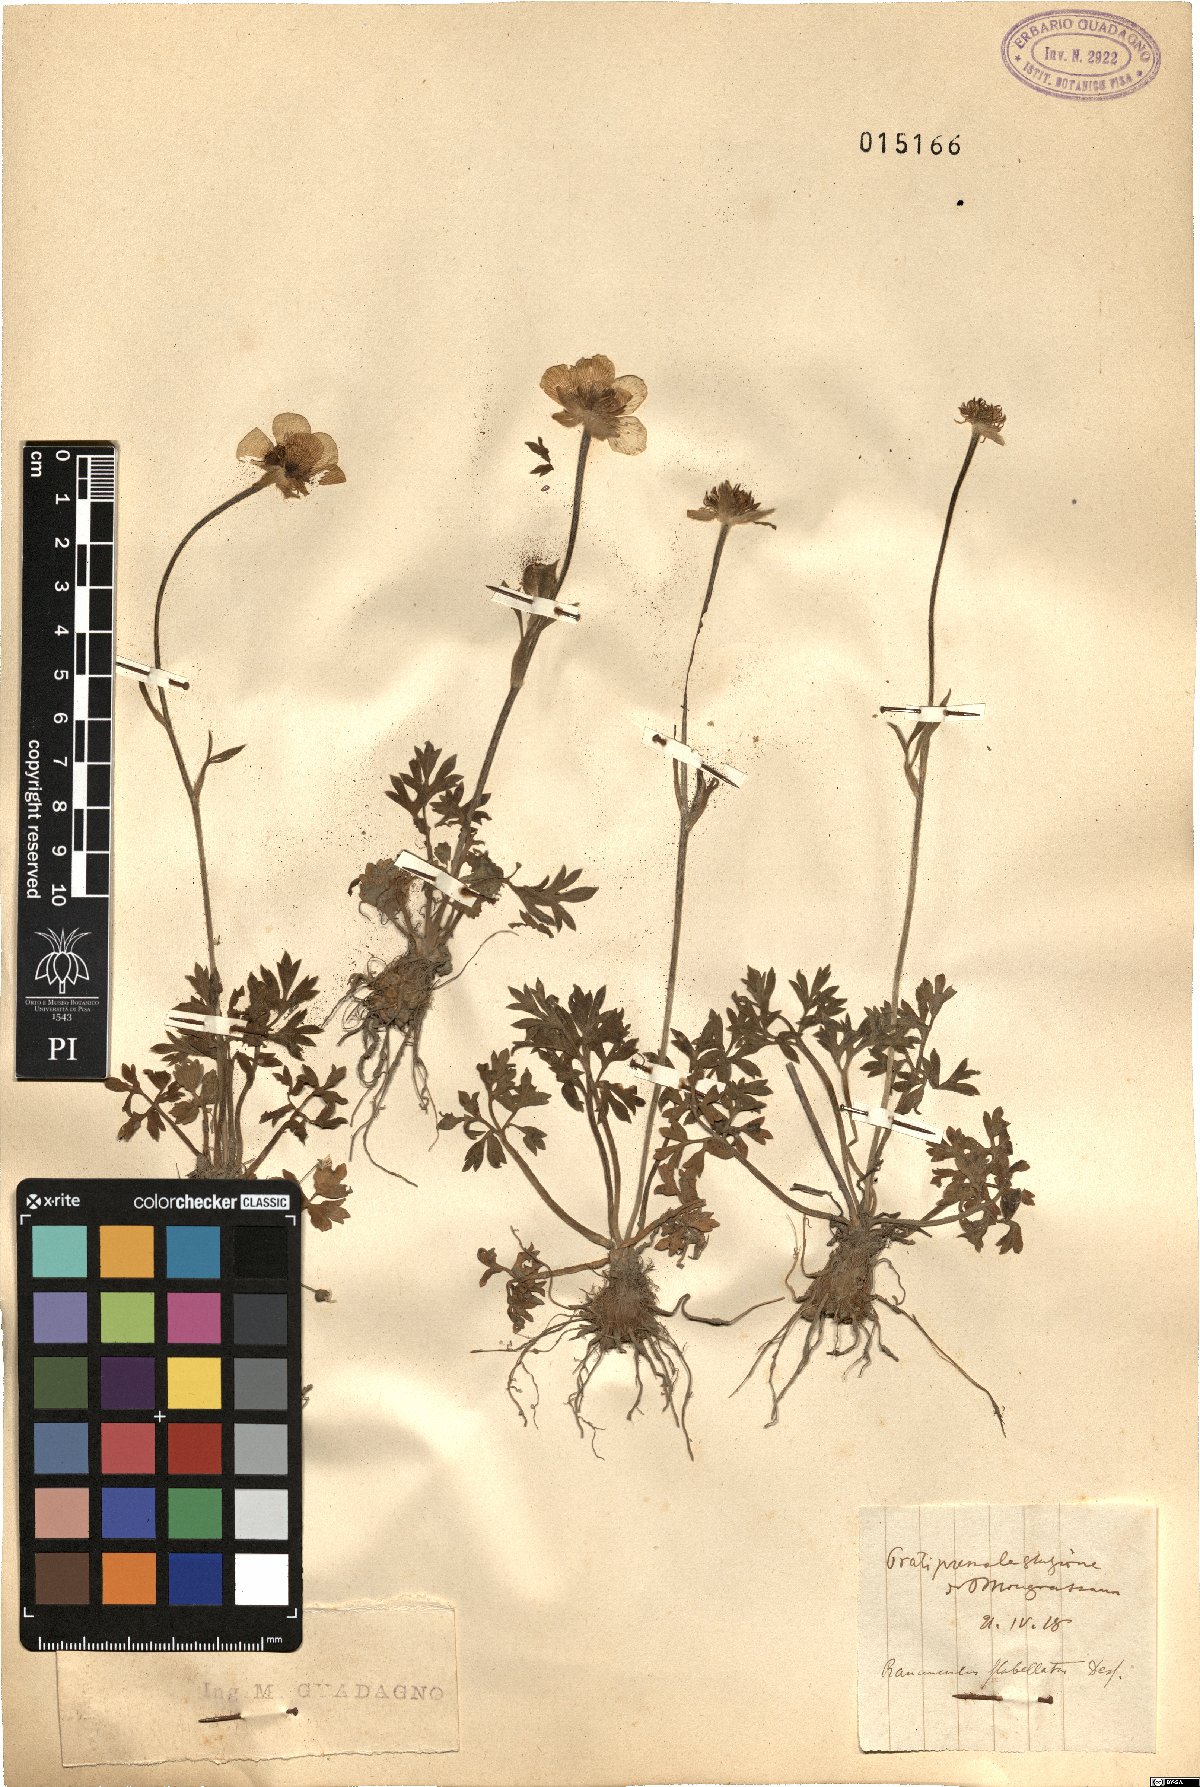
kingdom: Plantae
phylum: Tracheophyta
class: Magnoliopsida
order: Ranunculales
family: Ranunculaceae
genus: Ranunculus
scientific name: Ranunculus paludosus
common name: Jersey buttercup
